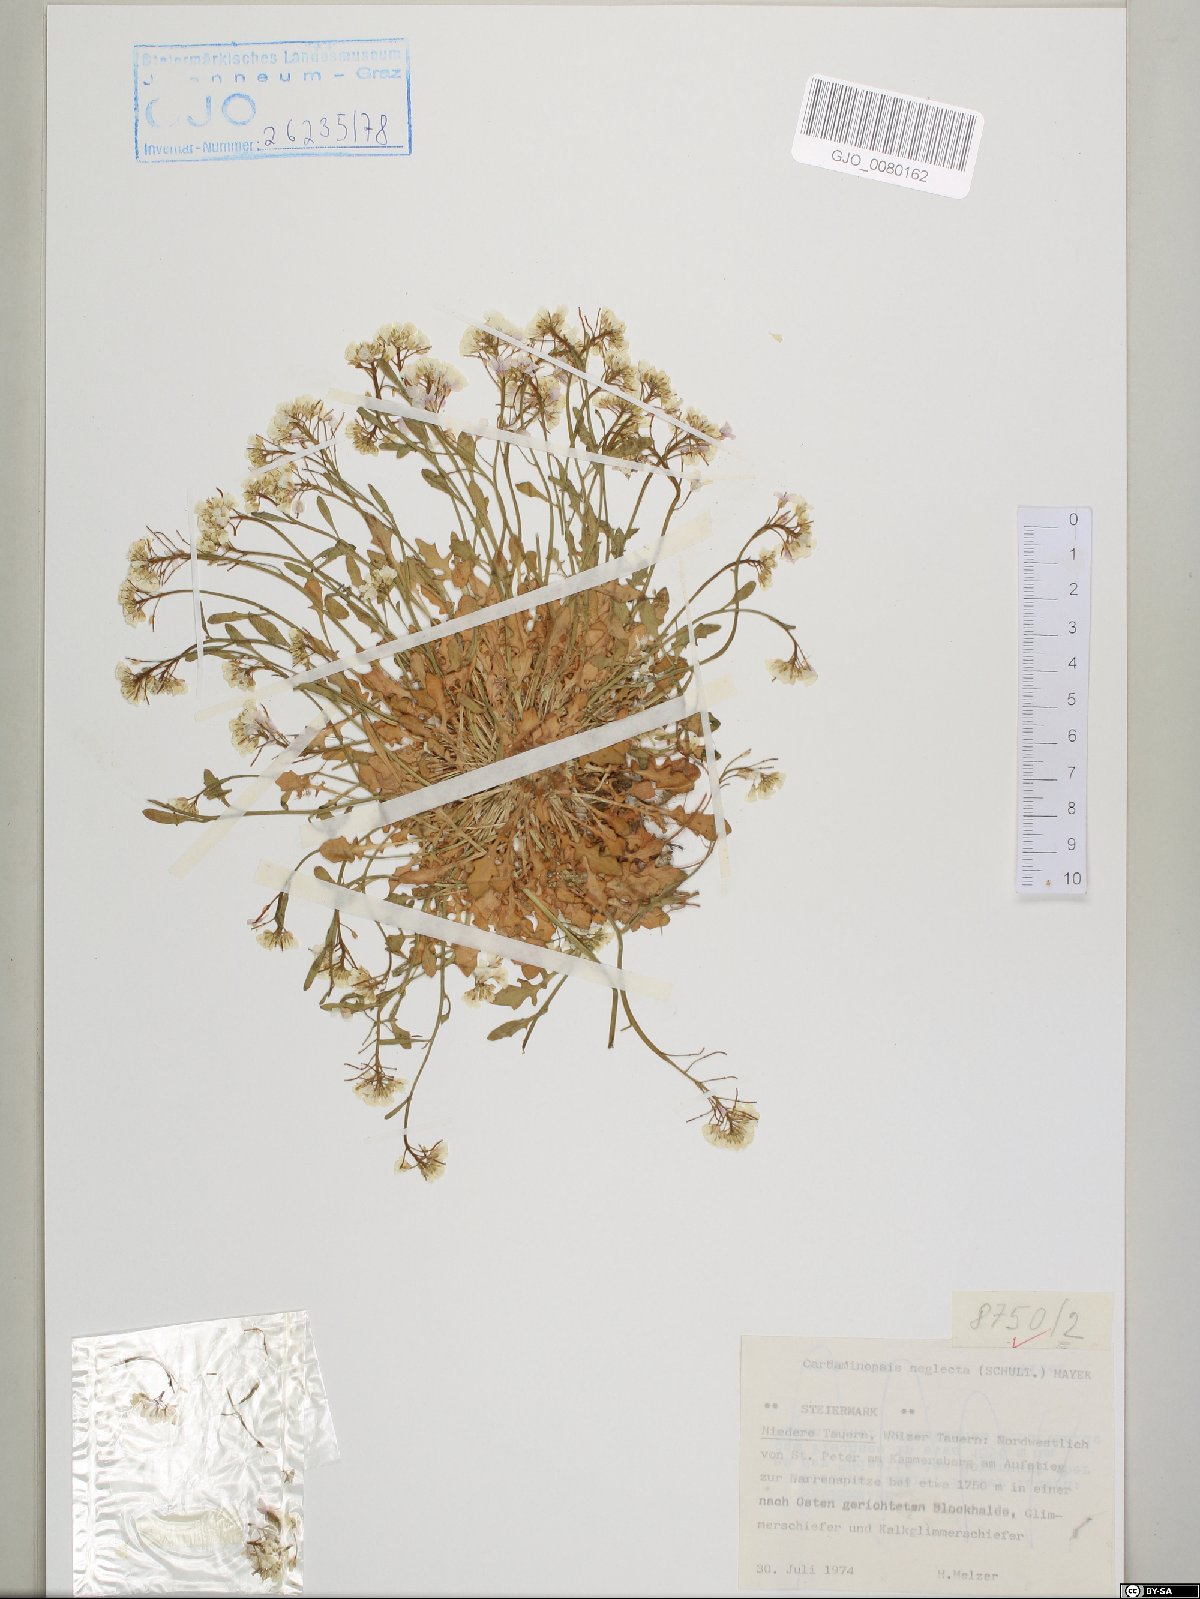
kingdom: Plantae
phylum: Tracheophyta
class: Magnoliopsida
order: Brassicales
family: Brassicaceae
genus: Arabidopsis
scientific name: Arabidopsis neglecta
